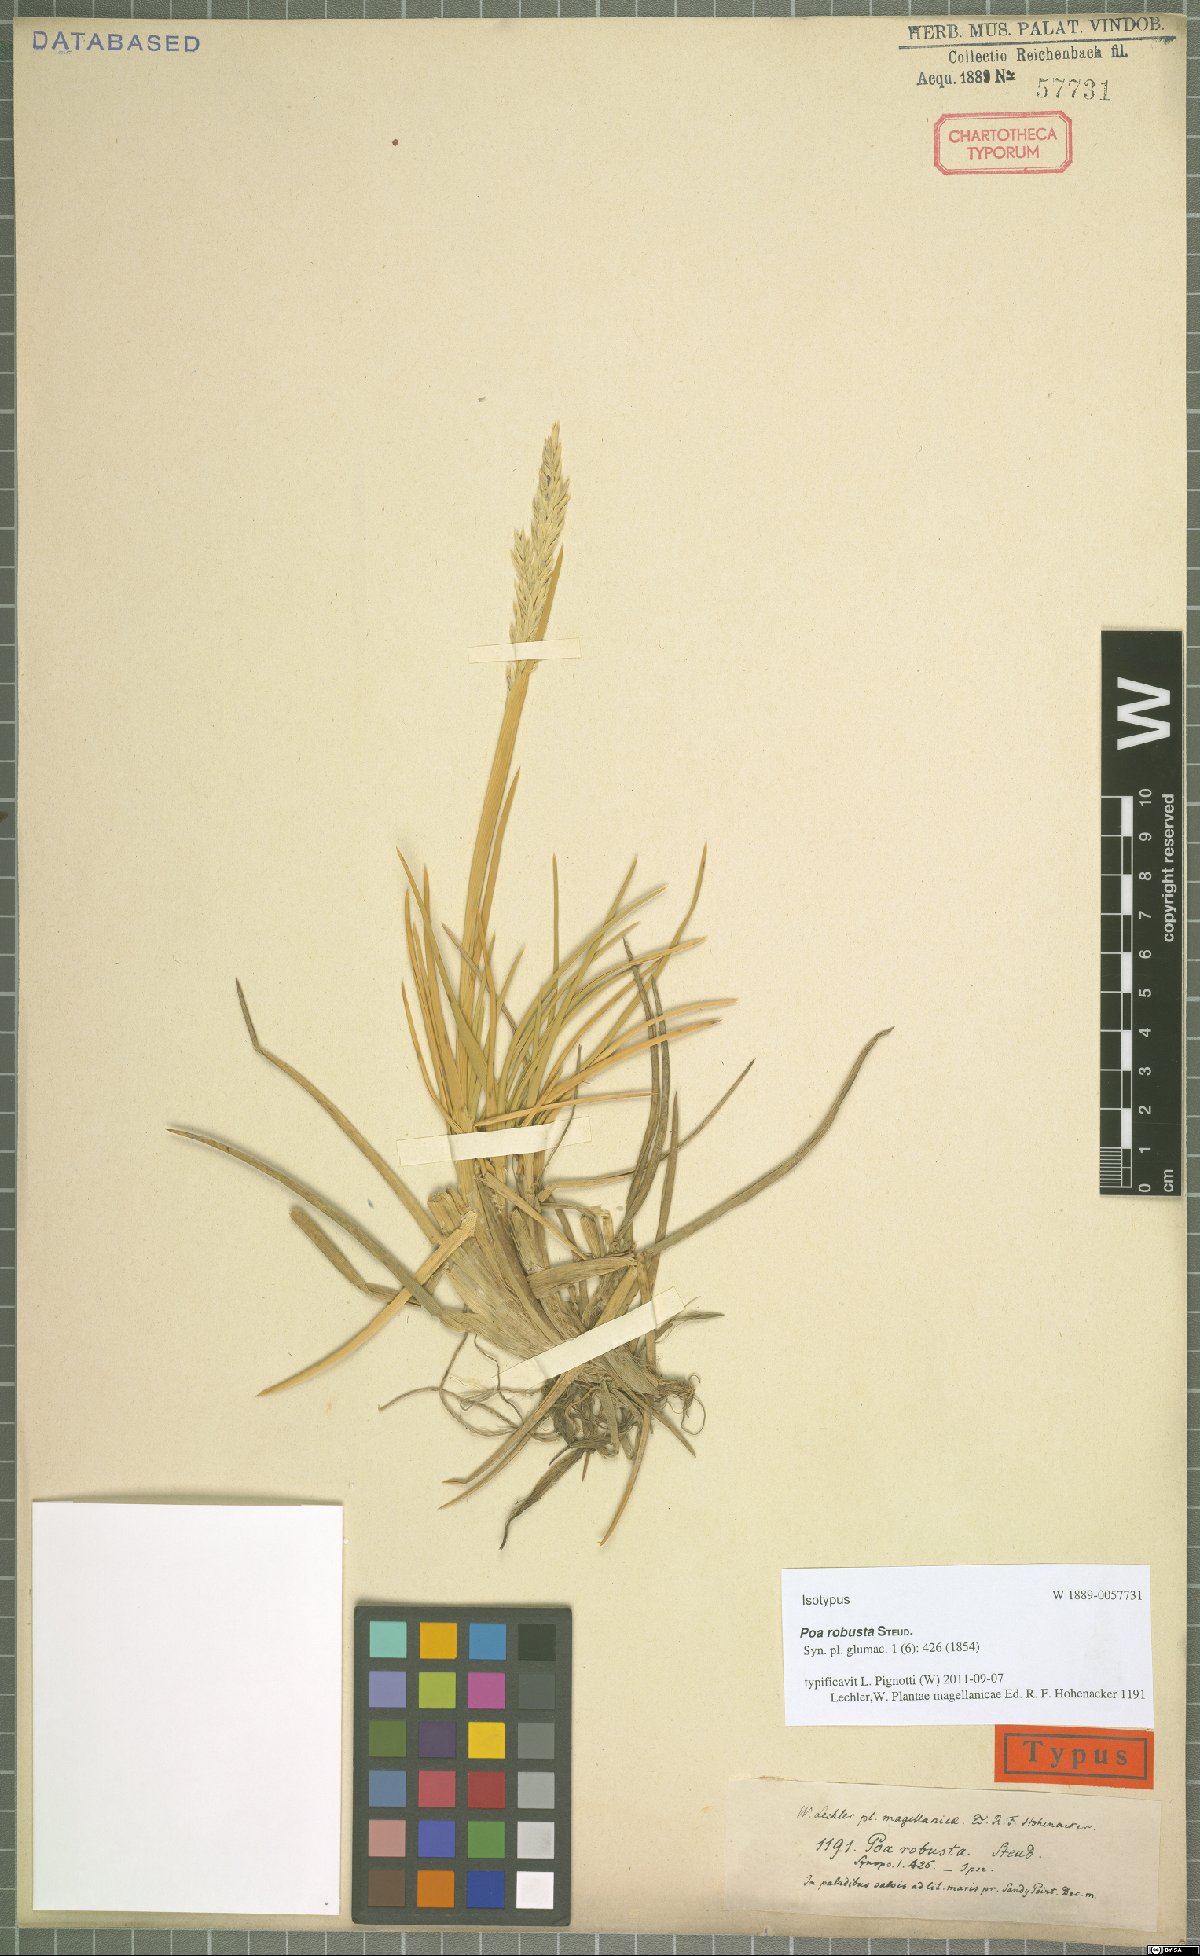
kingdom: Plantae
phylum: Tracheophyta
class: Liliopsida
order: Poales
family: Poaceae
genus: Nicoraepoa
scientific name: Nicoraepoa robusta
